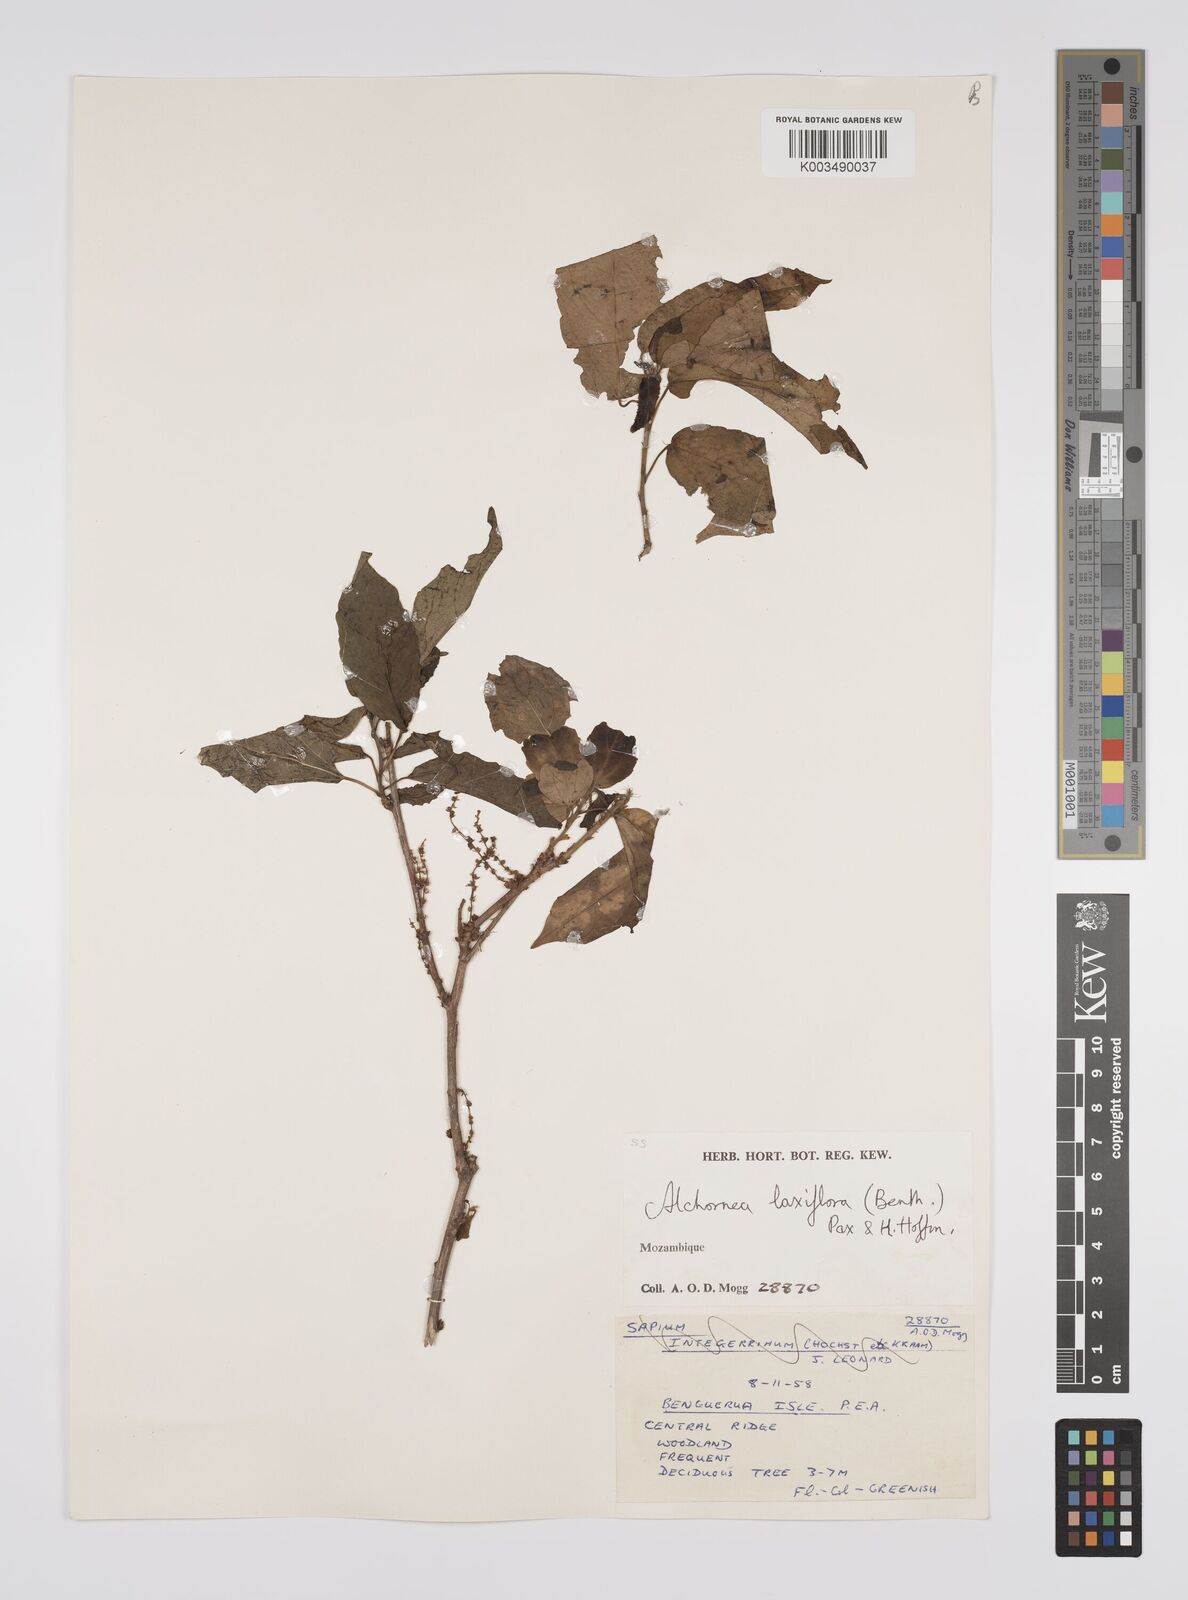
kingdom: Plantae
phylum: Tracheophyta
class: Magnoliopsida
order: Malpighiales
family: Euphorbiaceae
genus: Alchornea
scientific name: Alchornea laxiflora
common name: Lowveld bead-string
